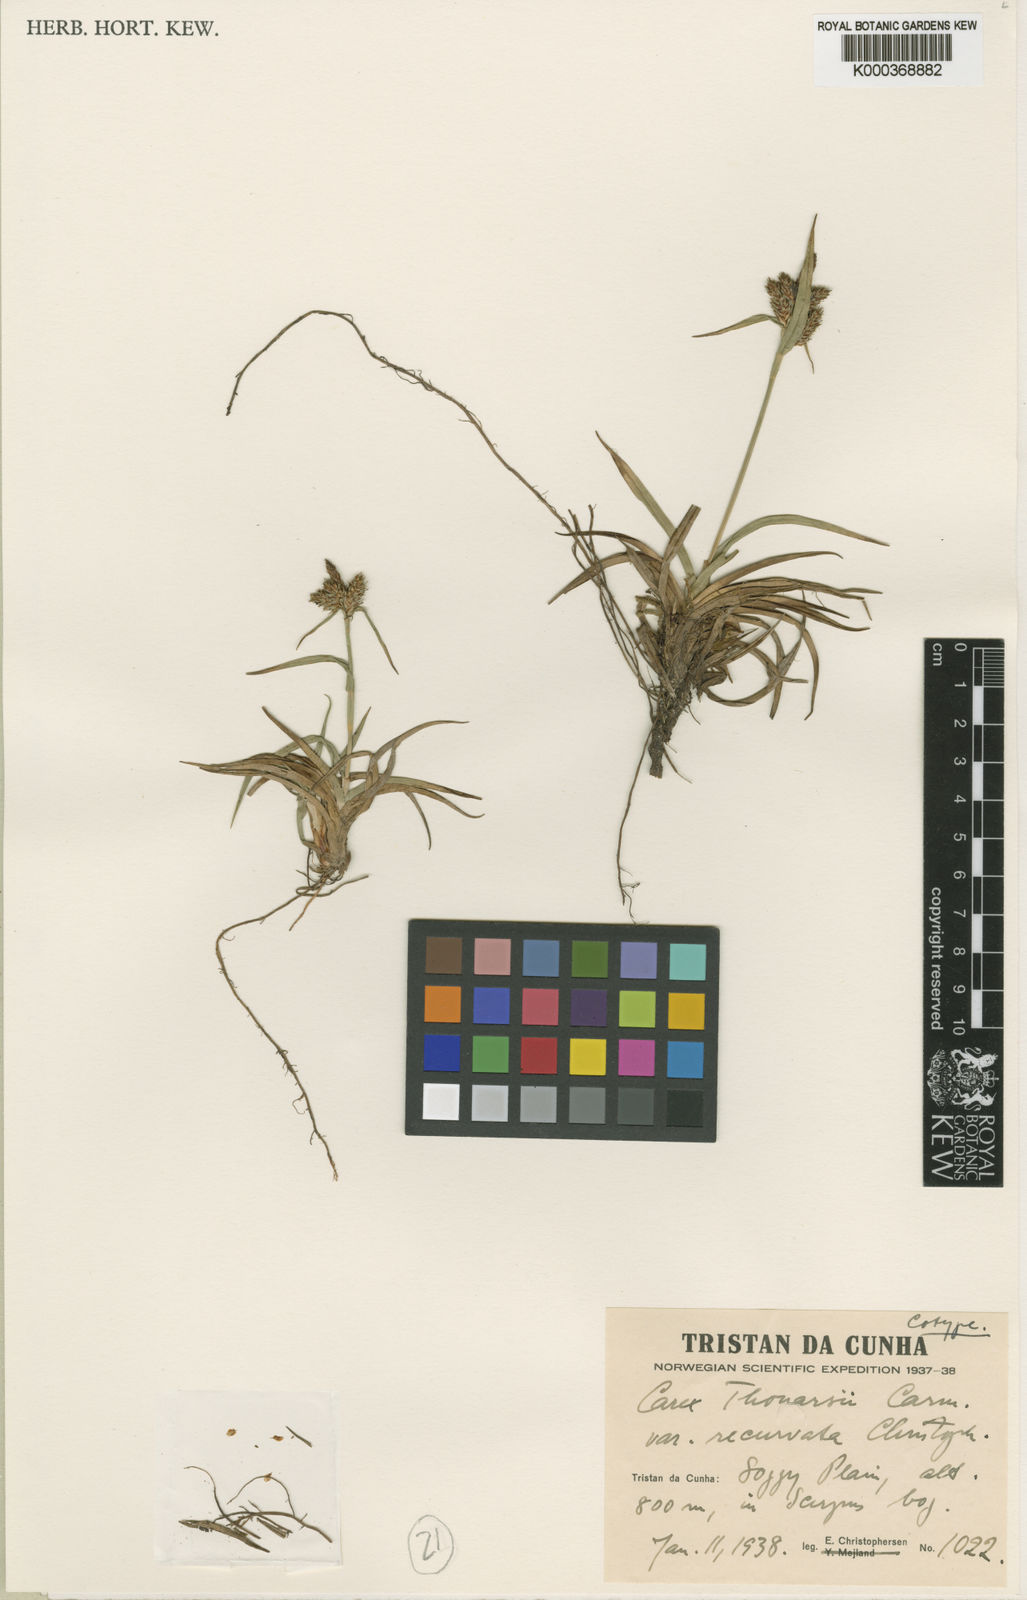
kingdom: Plantae
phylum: Tracheophyta
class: Liliopsida
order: Poales
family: Cyperaceae
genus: Carex
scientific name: Carex thouarsii
